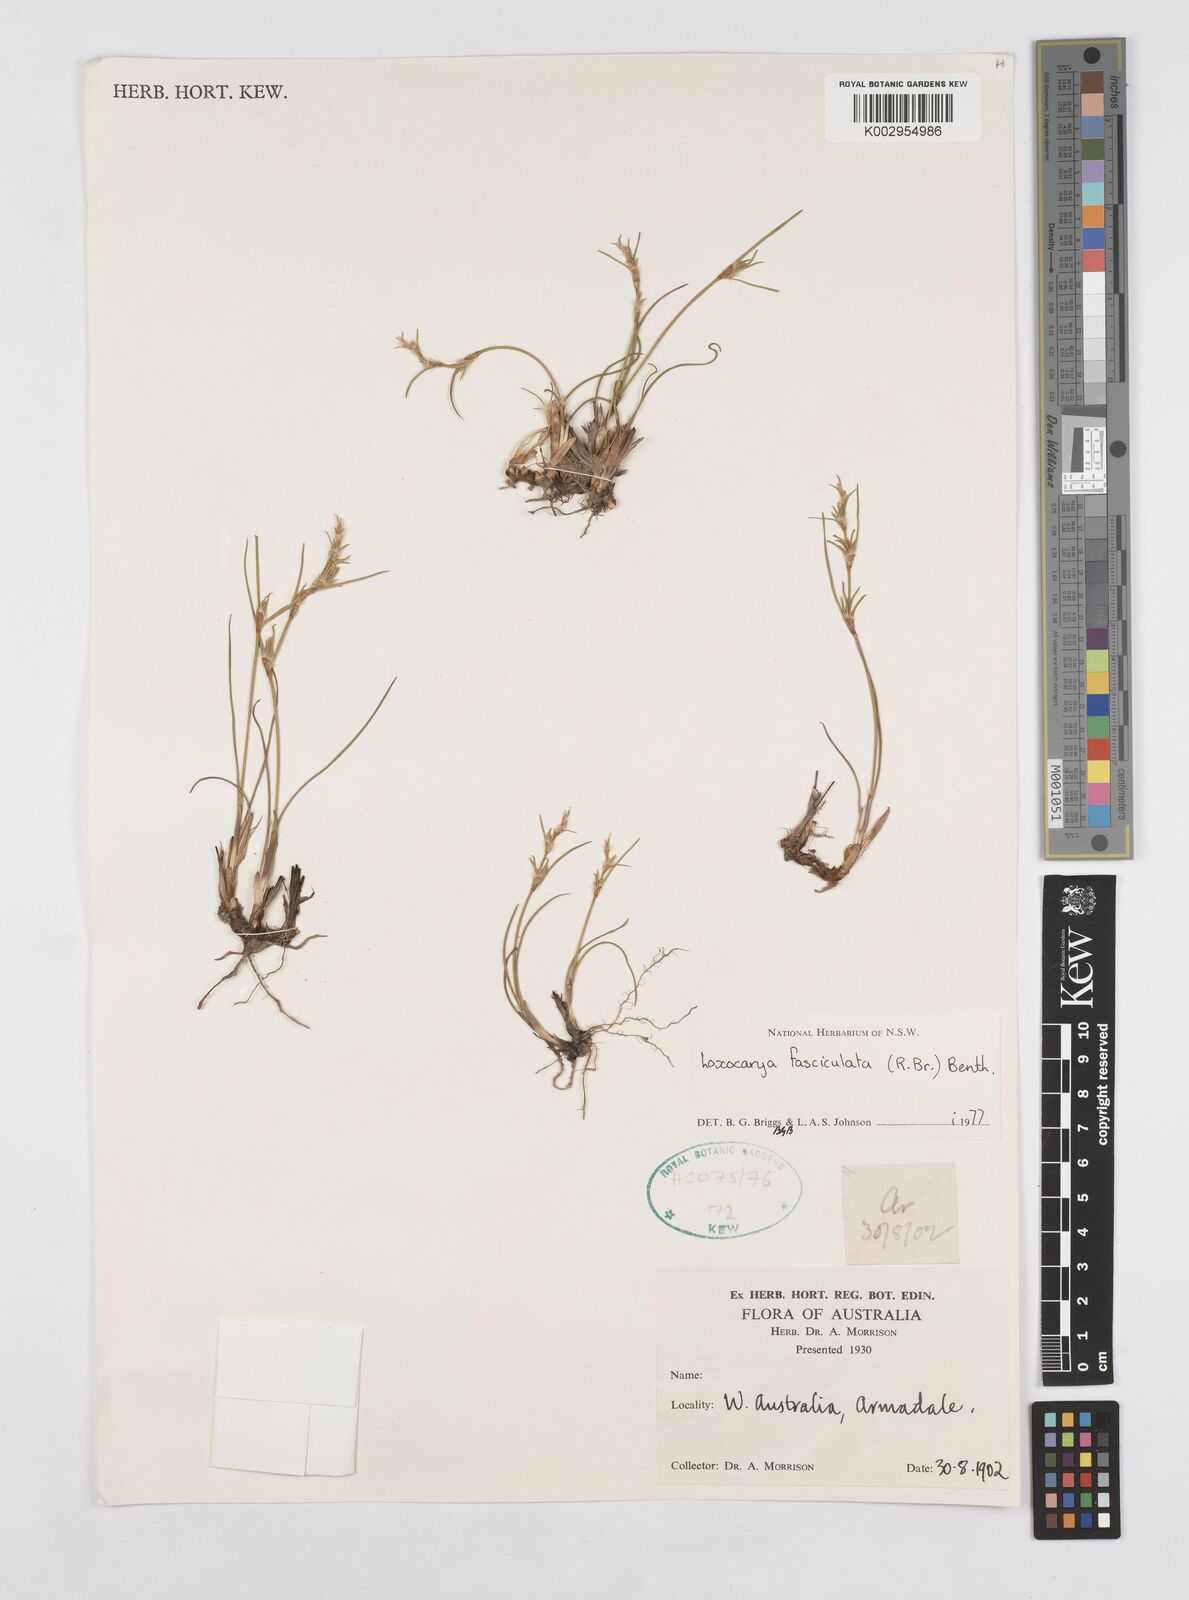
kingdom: Plantae
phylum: Tracheophyta
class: Liliopsida
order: Poales
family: Restionaceae
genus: Desmocladus
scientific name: Desmocladus fasciculatus
